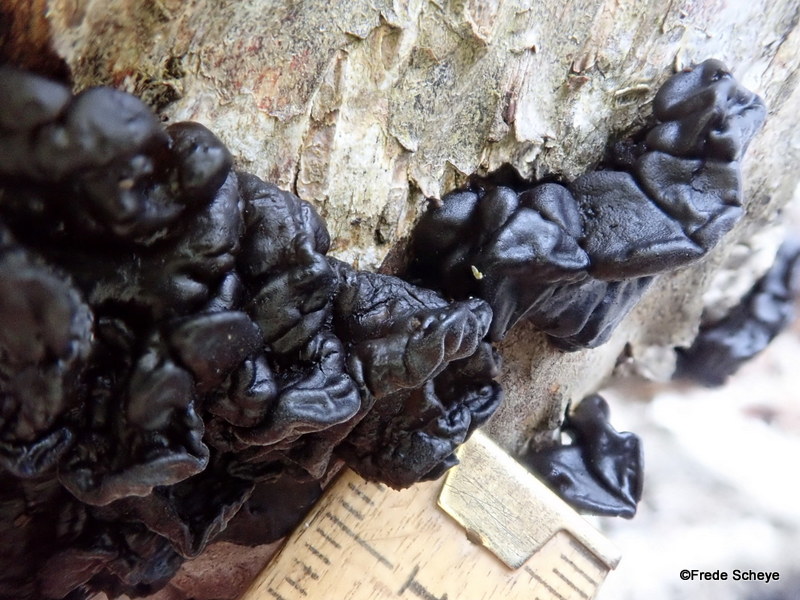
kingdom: Fungi
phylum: Basidiomycota
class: Agaricomycetes
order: Auriculariales
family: Auriculariaceae
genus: Exidia
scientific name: Exidia nigricans
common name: almindelig bævretop
